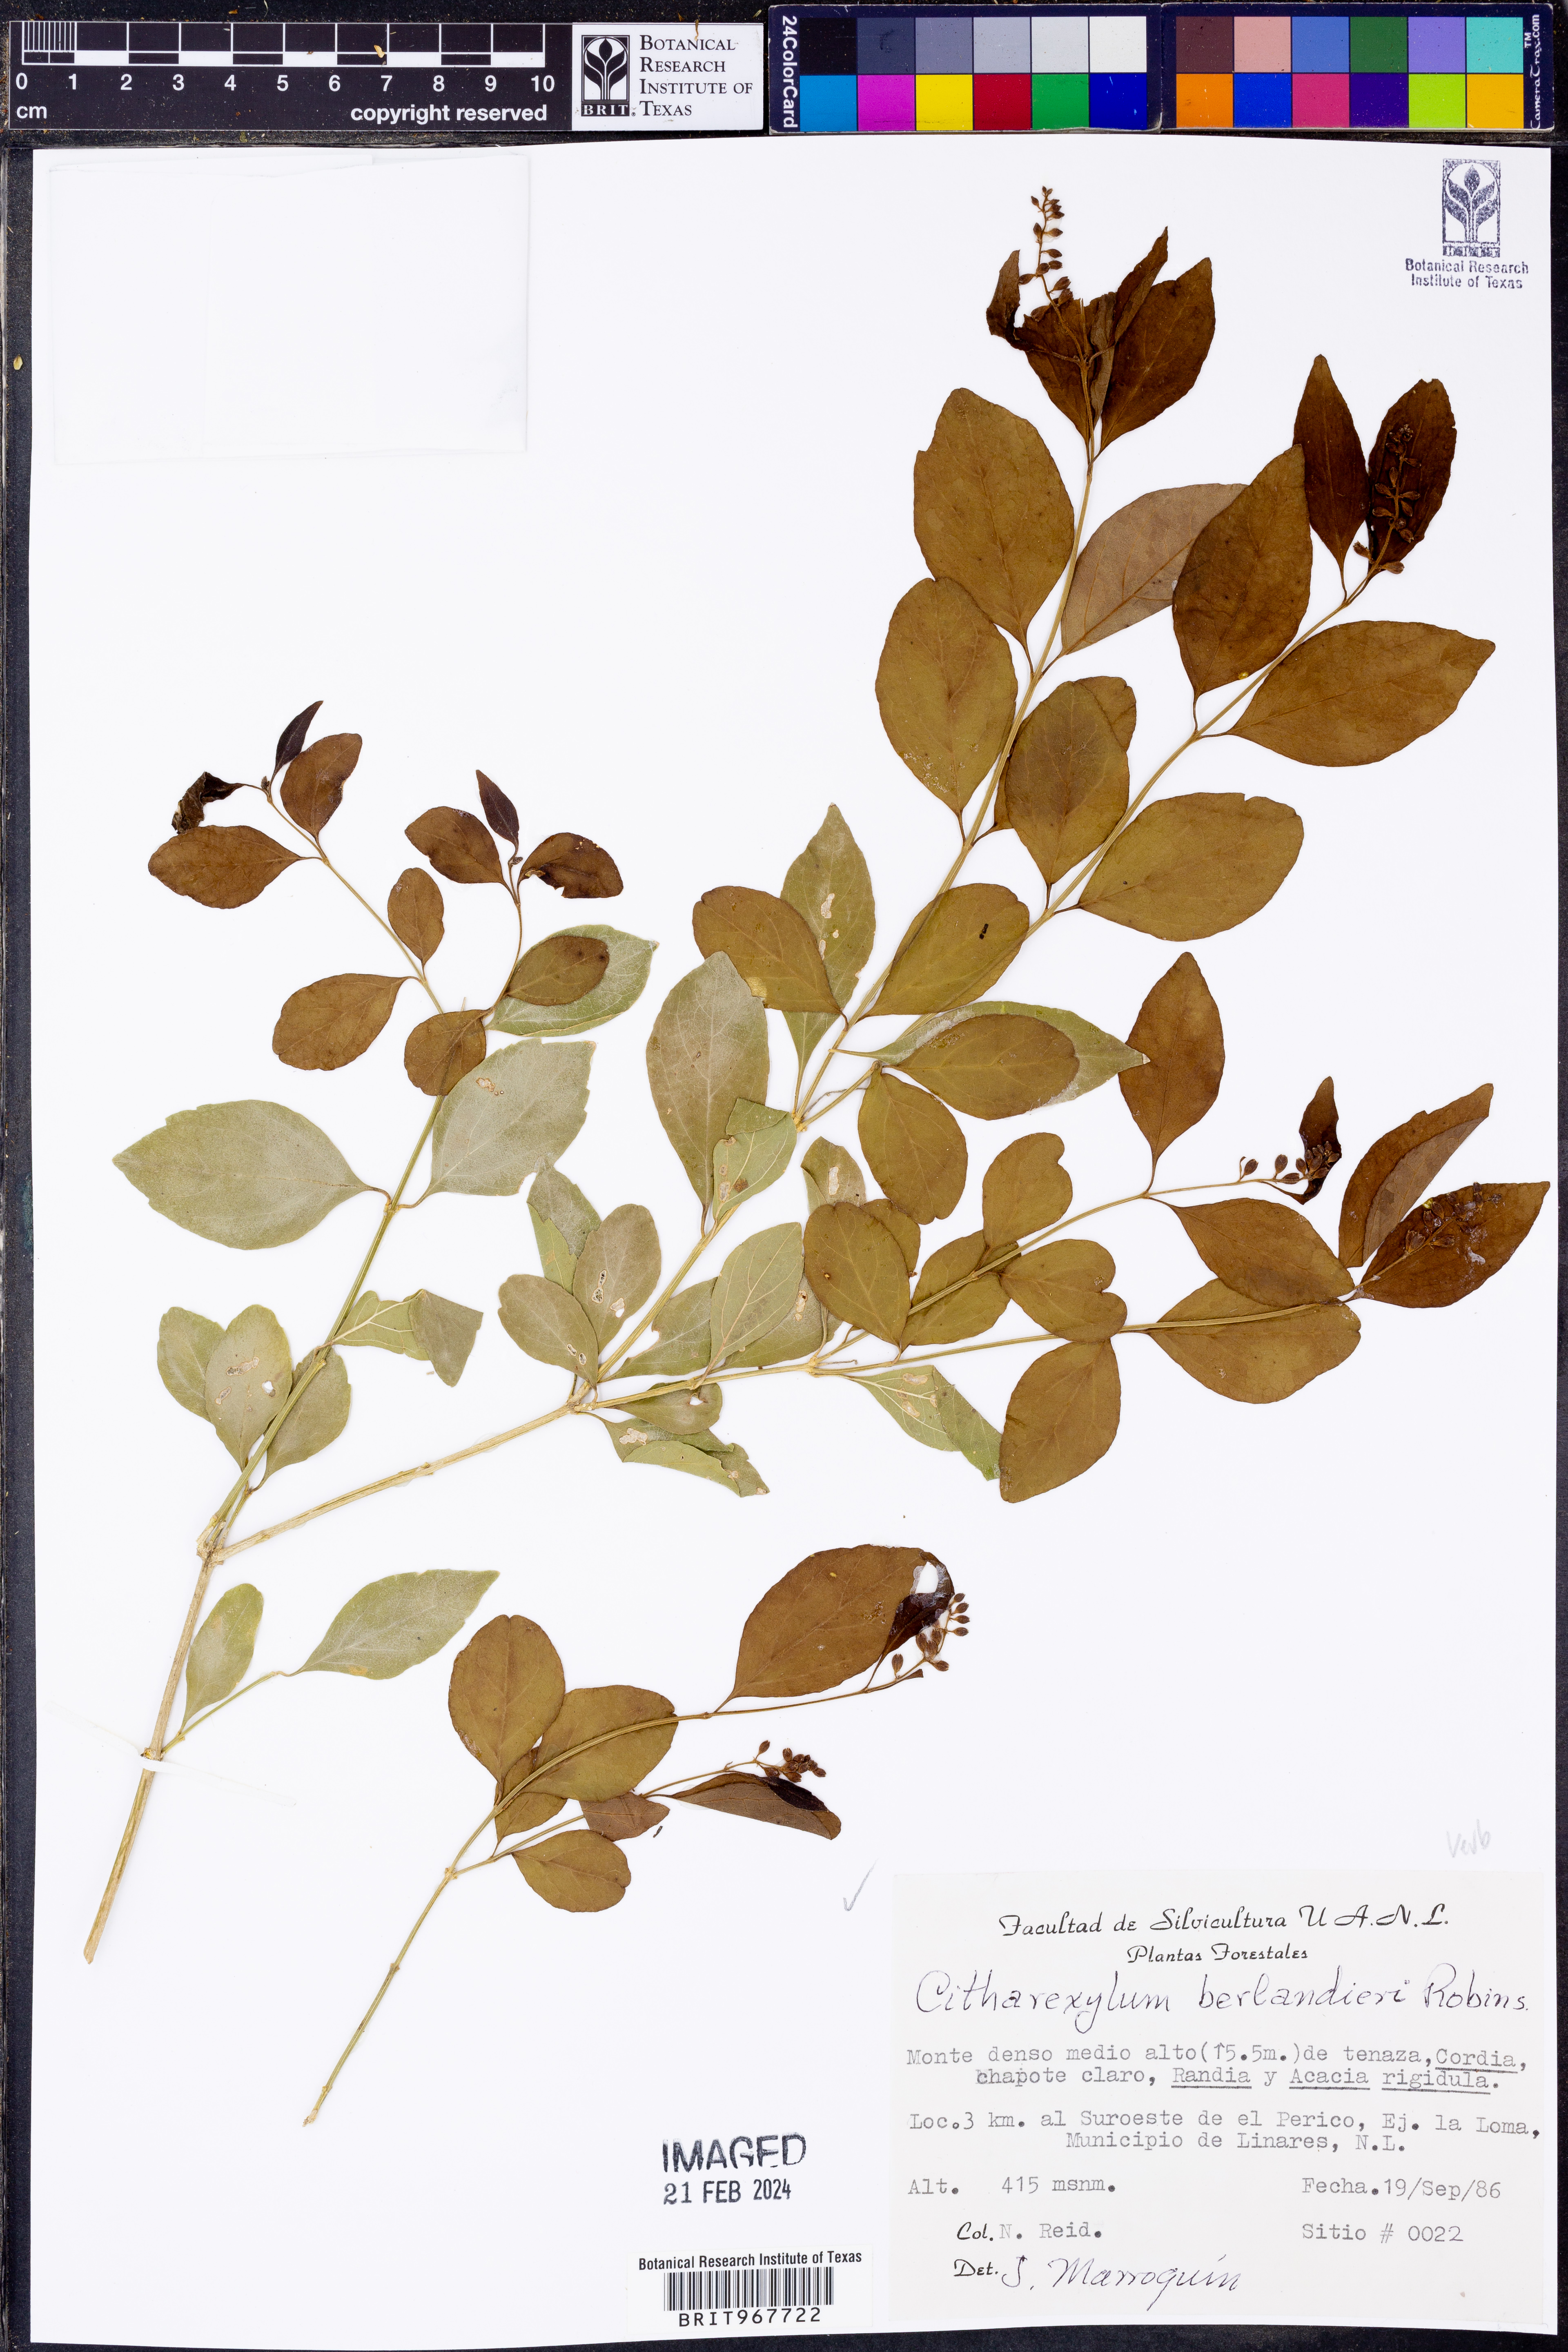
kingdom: Plantae
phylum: Tracheophyta
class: Magnoliopsida
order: Lamiales
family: Verbenaceae
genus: Citharexylum
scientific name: Citharexylum
